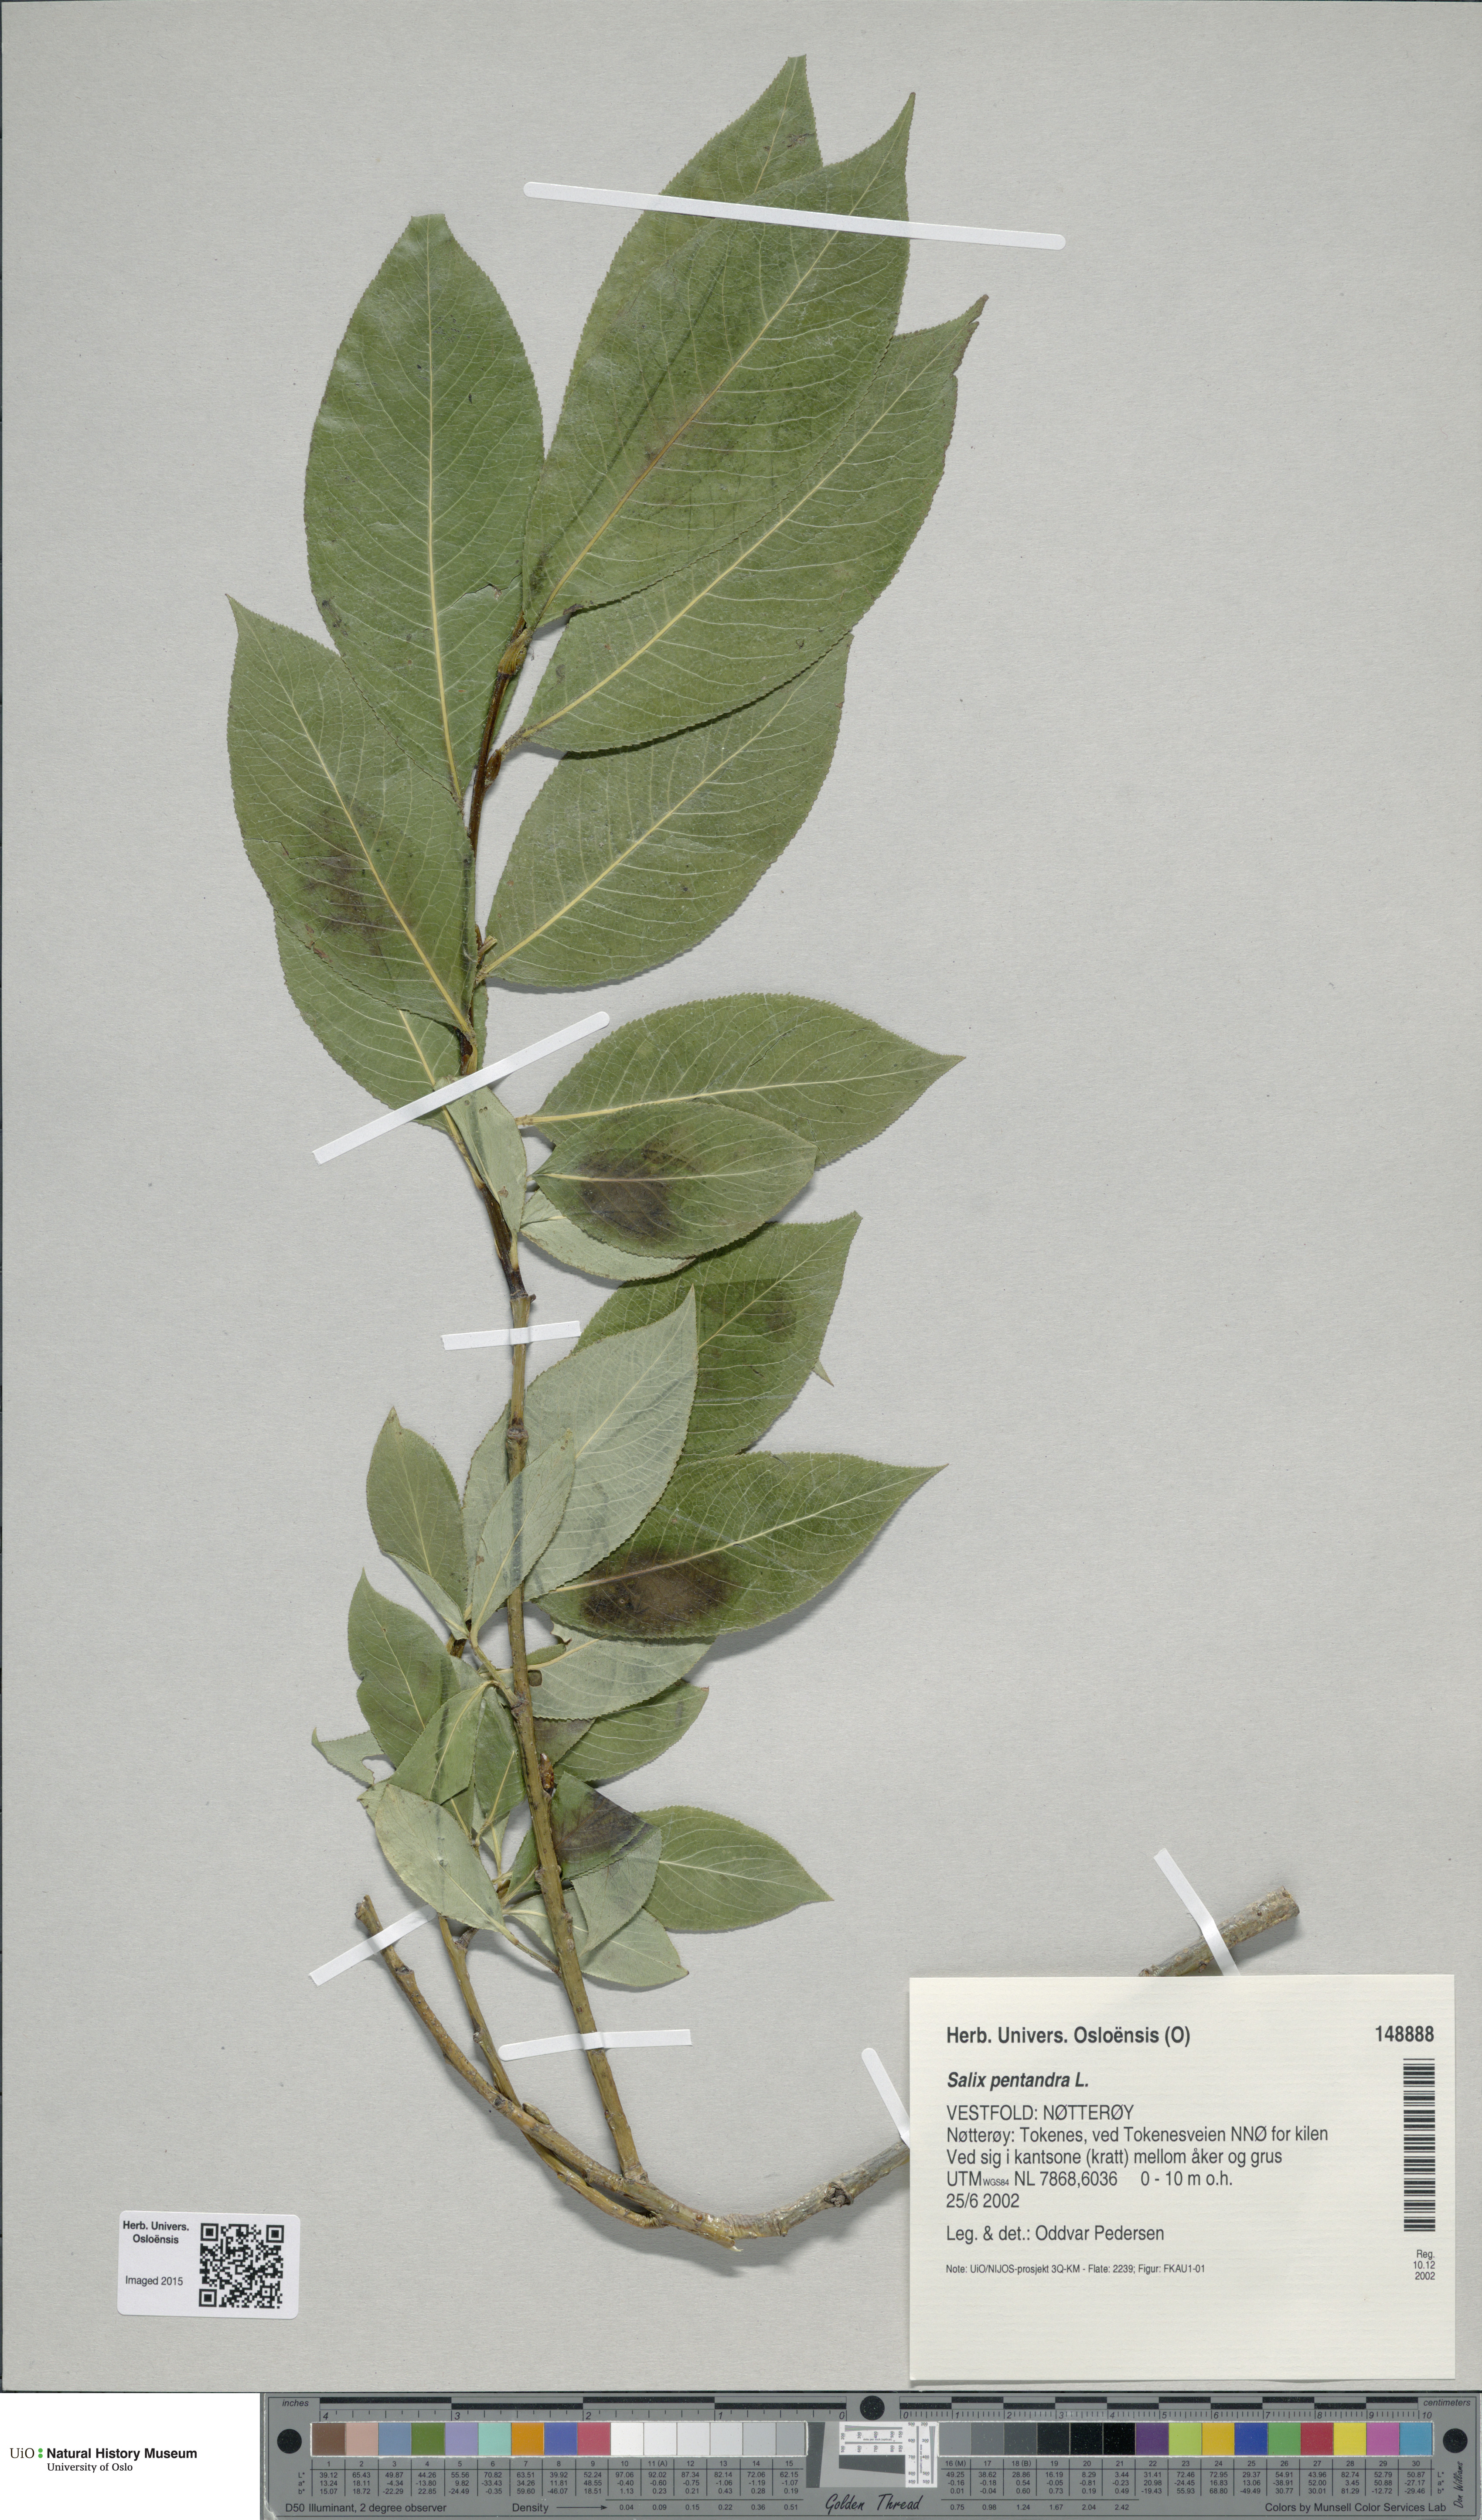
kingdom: Plantae
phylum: Tracheophyta
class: Magnoliopsida
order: Malpighiales
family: Salicaceae
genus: Salix
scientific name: Salix pentandra
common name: Bay willow
